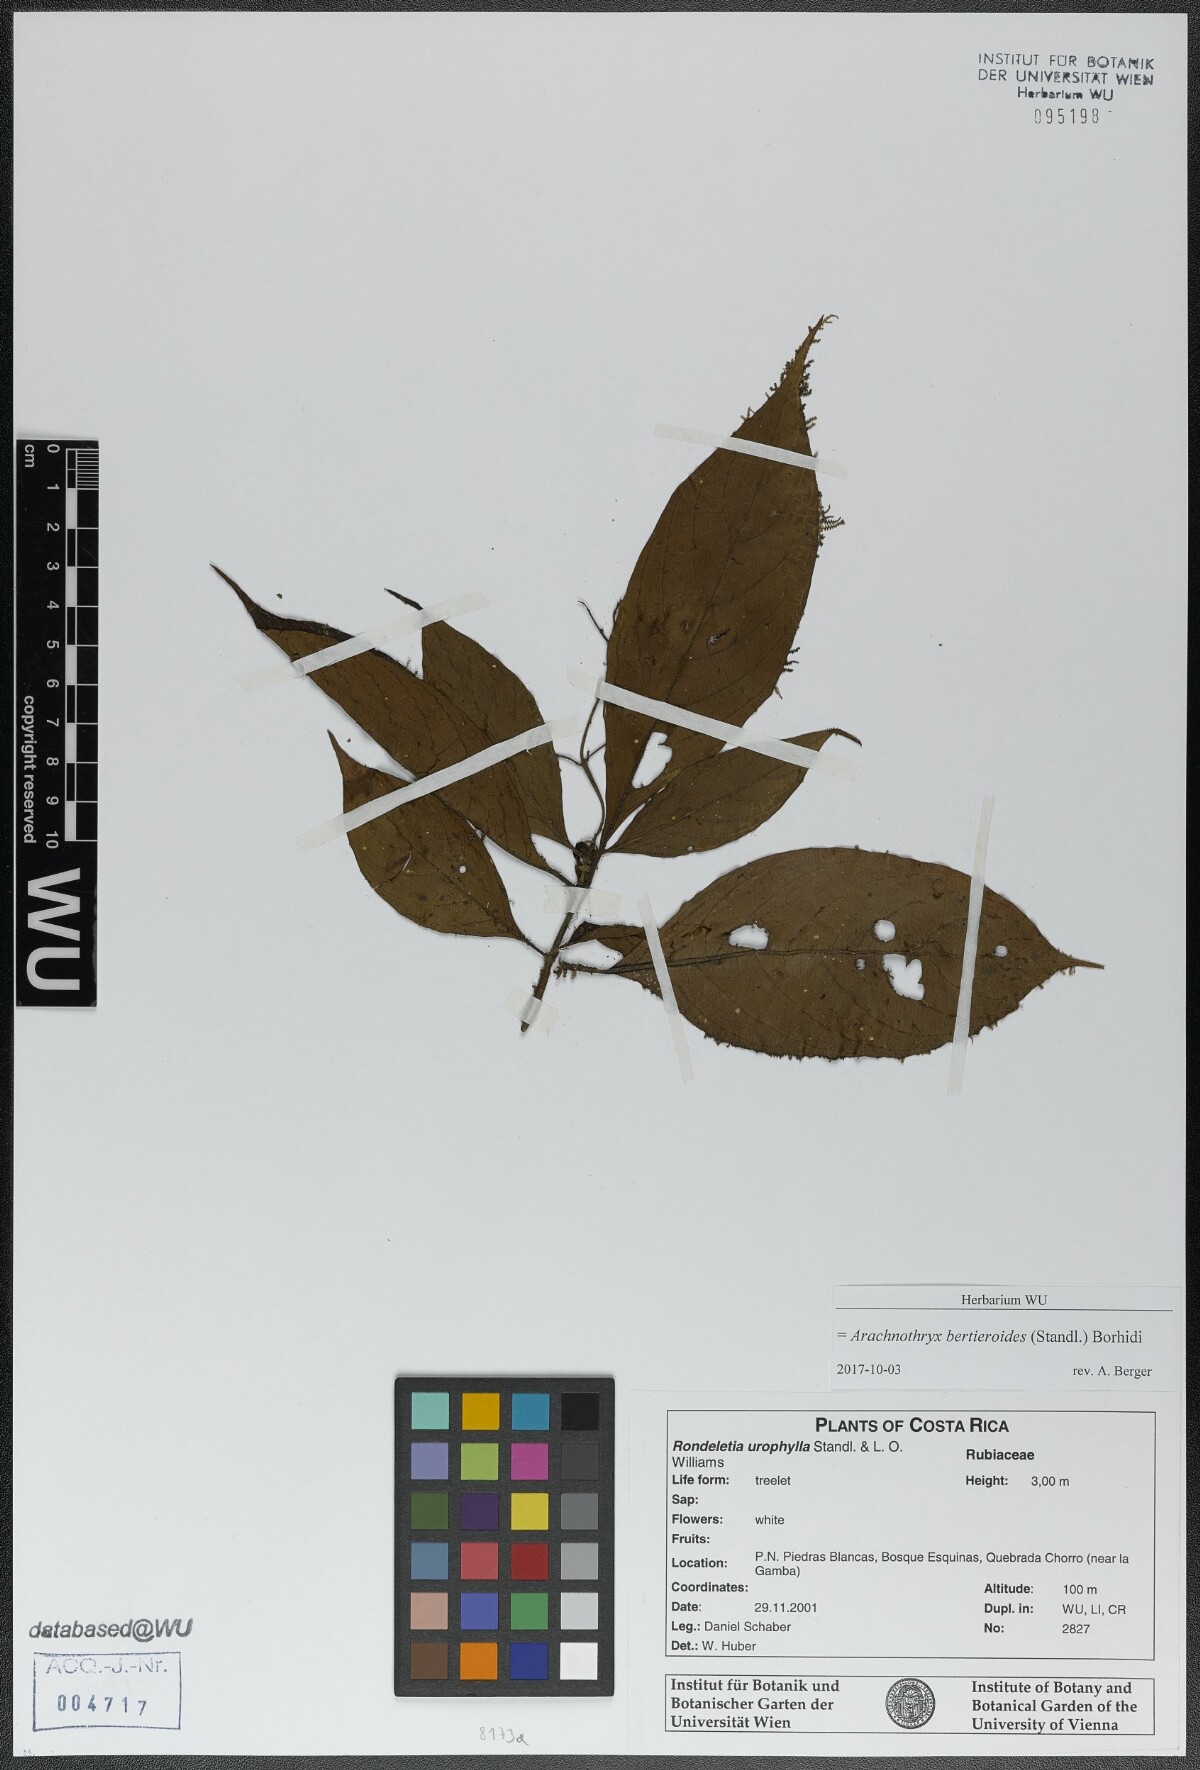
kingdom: Plantae
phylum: Tracheophyta
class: Magnoliopsida
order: Gentianales
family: Rubiaceae
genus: Arachnothryx
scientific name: Arachnothryx bertieroides
